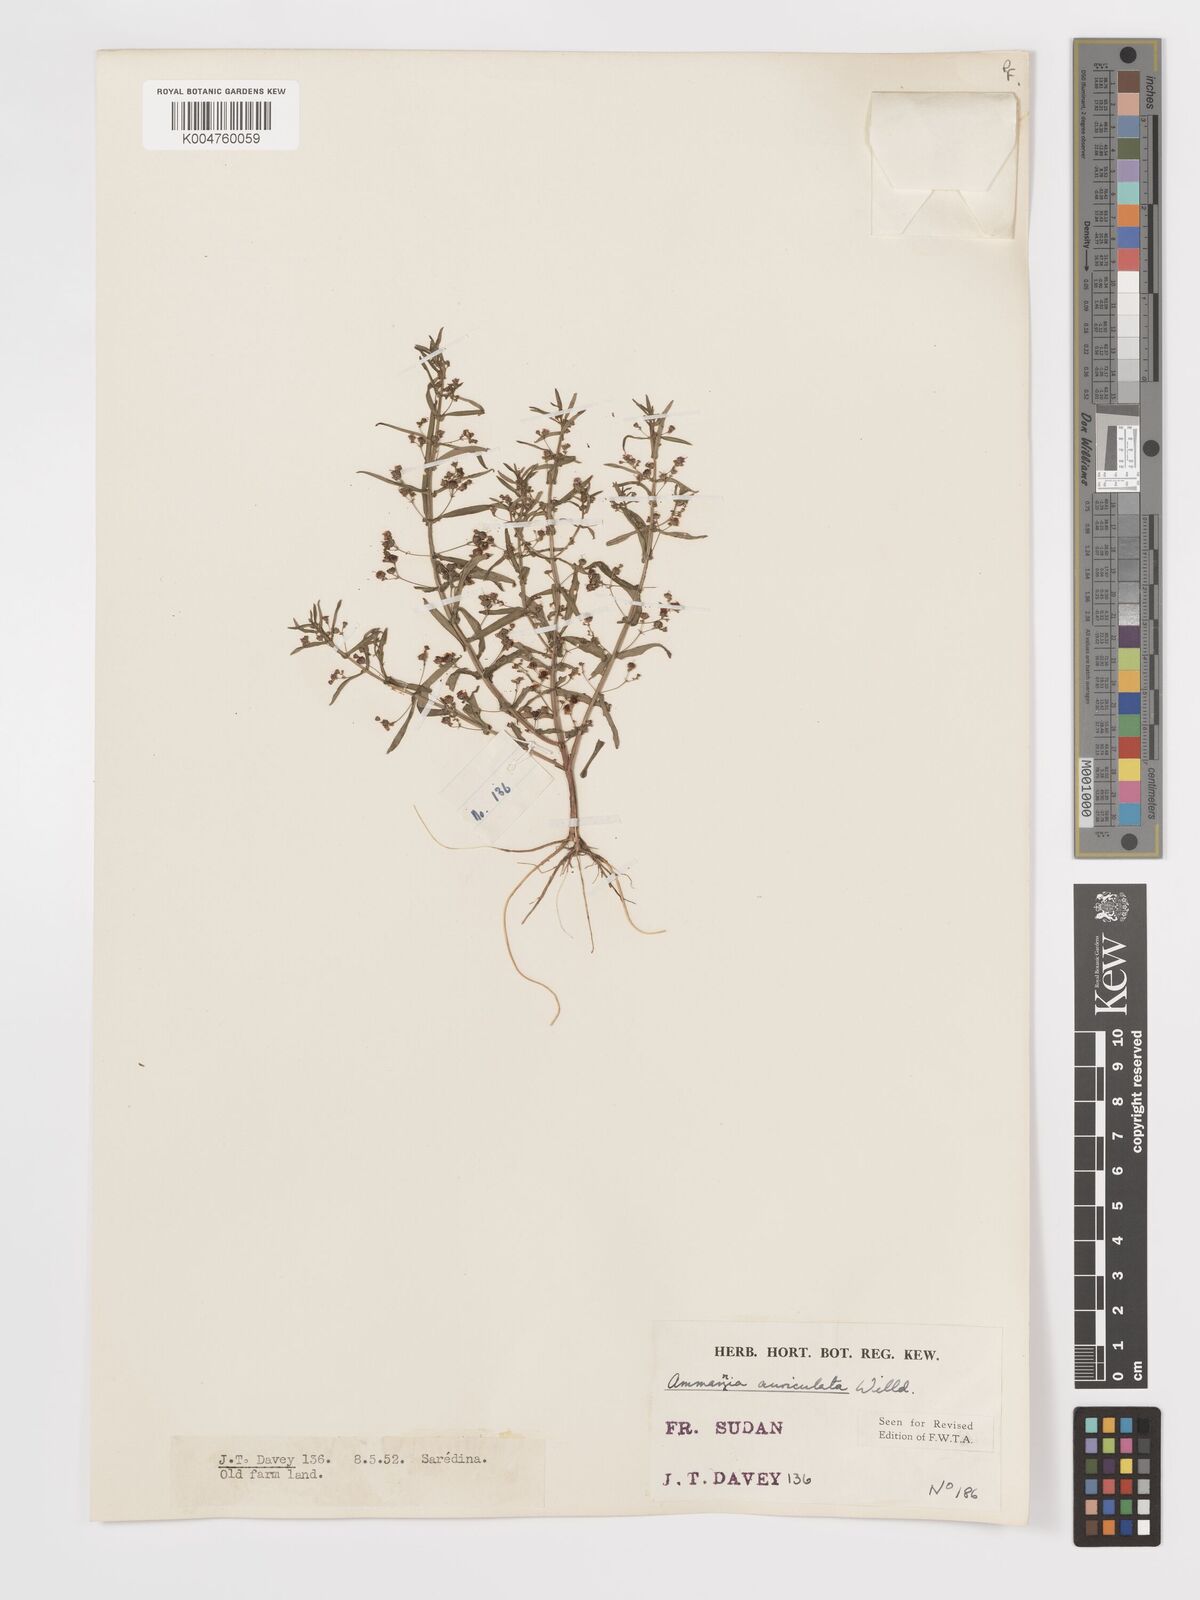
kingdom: Plantae
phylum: Tracheophyta
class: Magnoliopsida
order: Myrtales
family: Lythraceae
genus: Ammannia
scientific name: Ammannia auriculata
